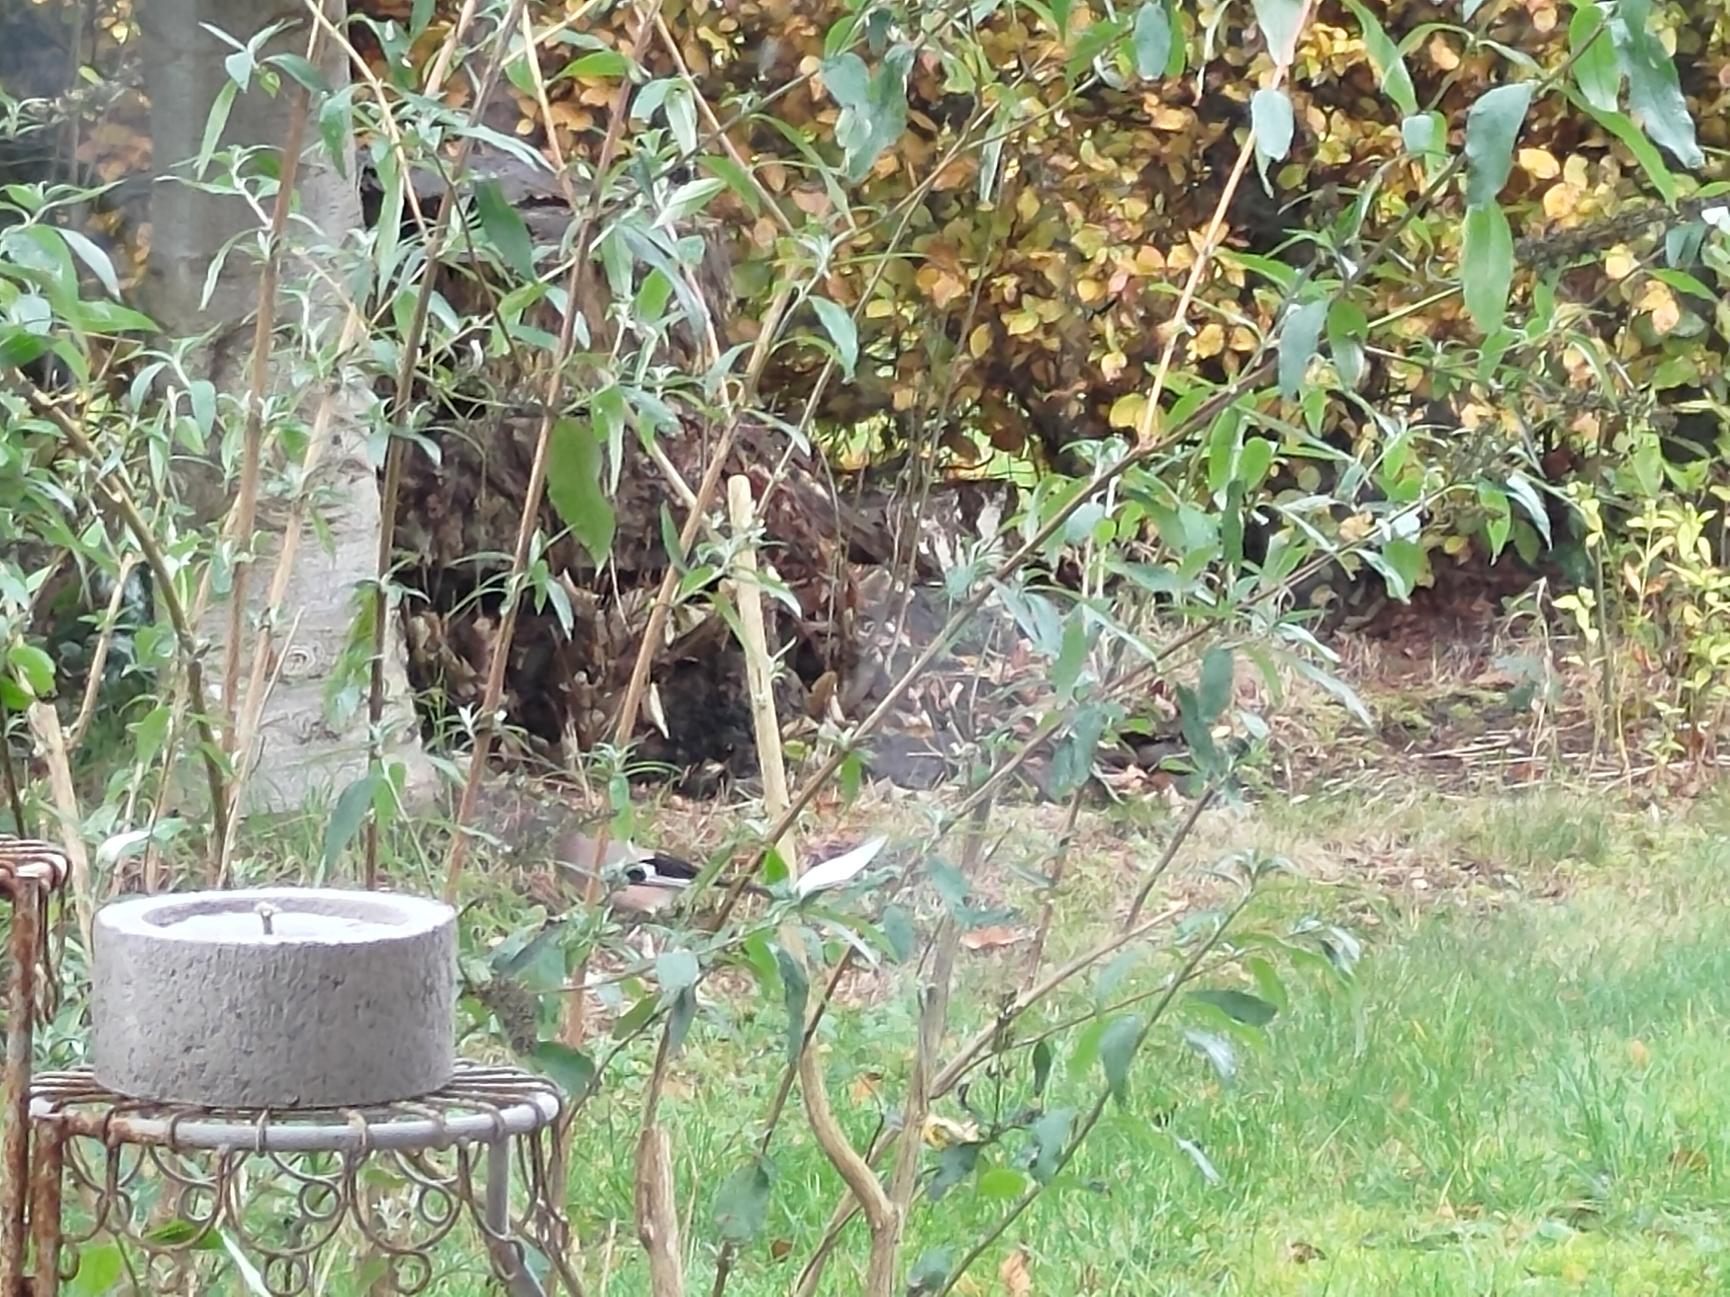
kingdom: Animalia
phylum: Chordata
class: Aves
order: Passeriformes
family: Corvidae
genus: Garrulus
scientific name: Garrulus glandarius
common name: Skovskade
